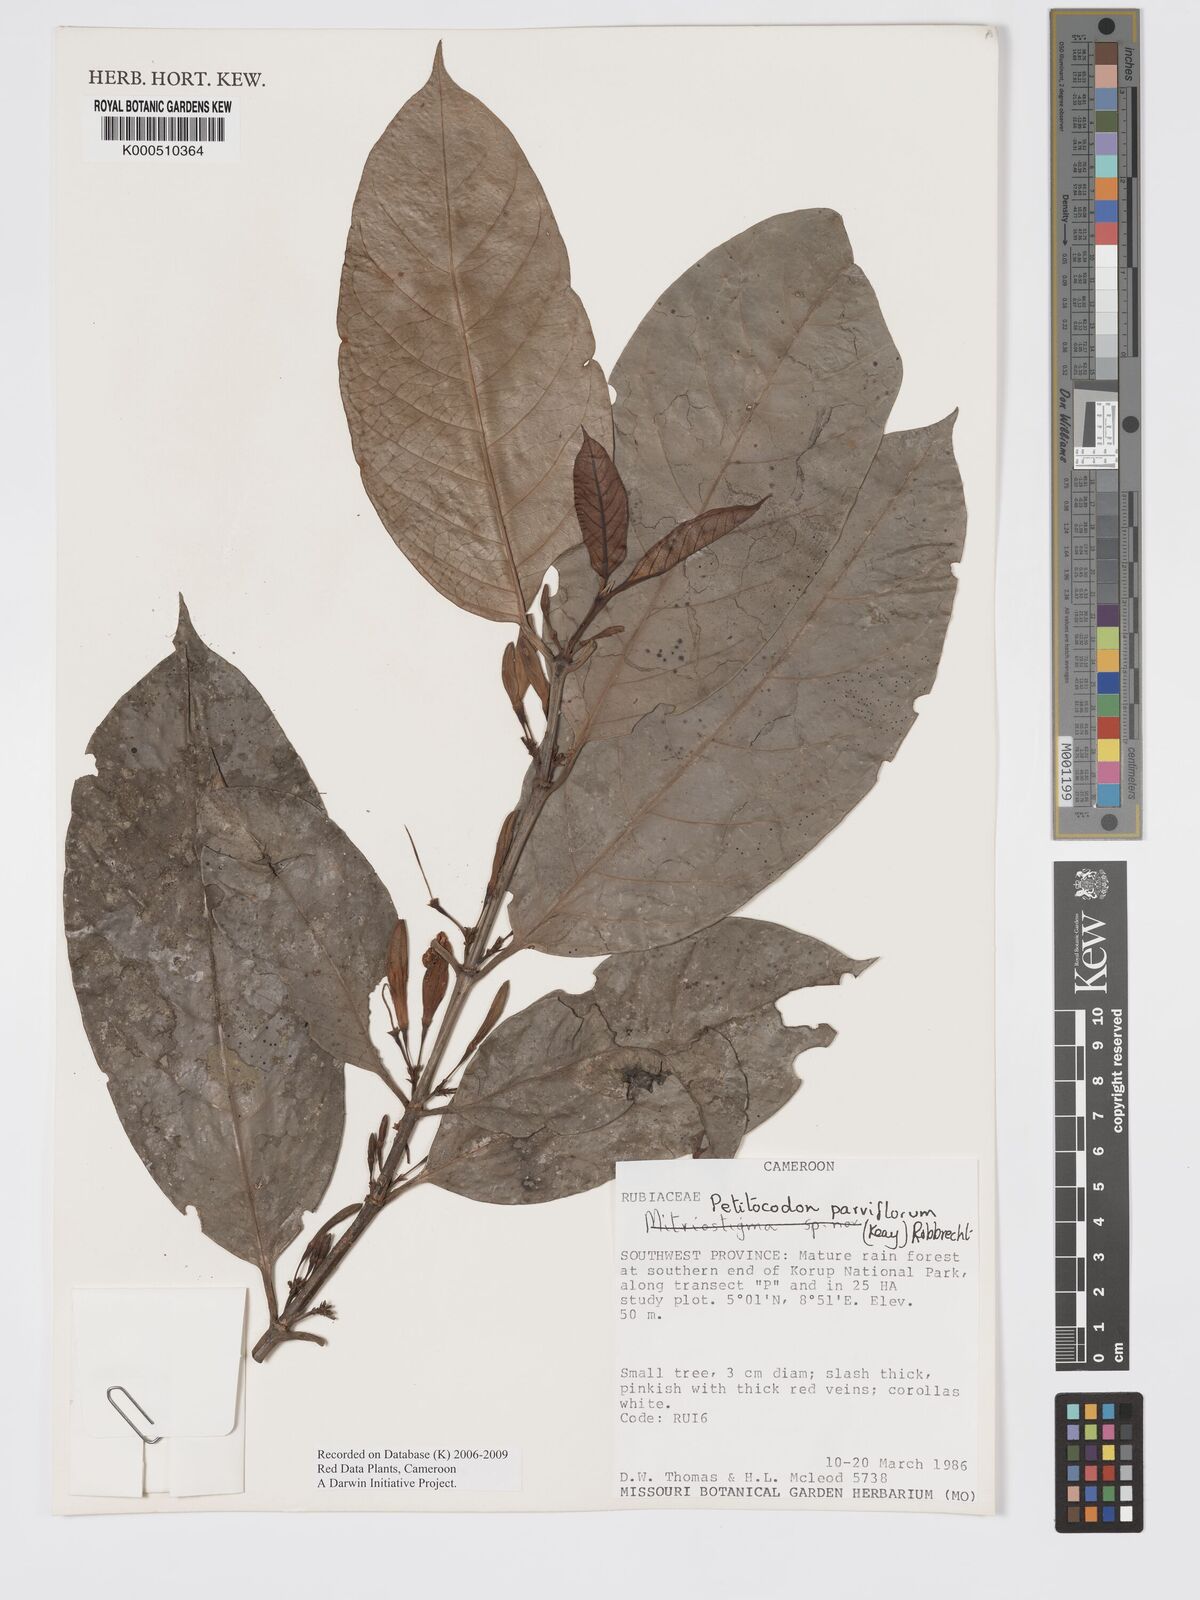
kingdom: Plantae
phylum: Tracheophyta
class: Magnoliopsida
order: Gentianales
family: Rubiaceae
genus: Petitiocodon
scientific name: Petitiocodon parviflorum
